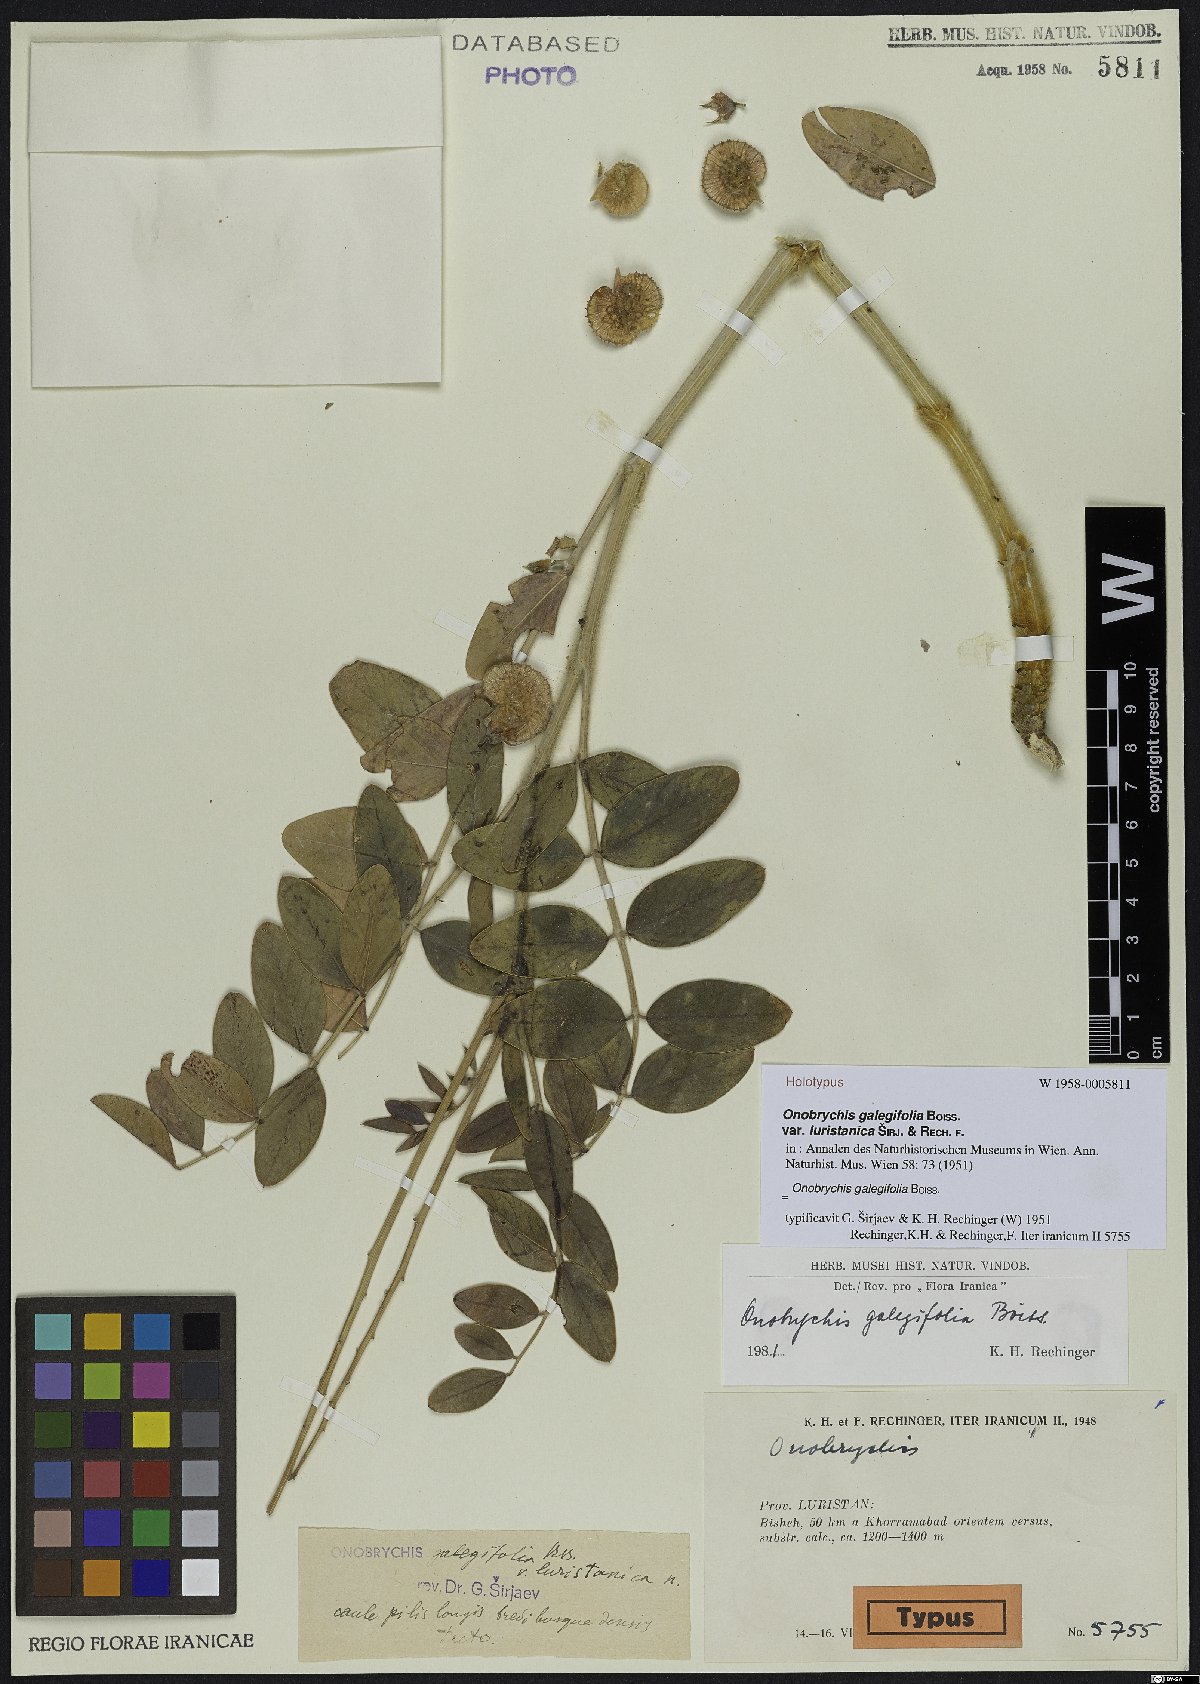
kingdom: Plantae
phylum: Tracheophyta
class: Magnoliopsida
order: Fabales
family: Fabaceae
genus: Onobrychis
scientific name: Onobrychis galegifolia
